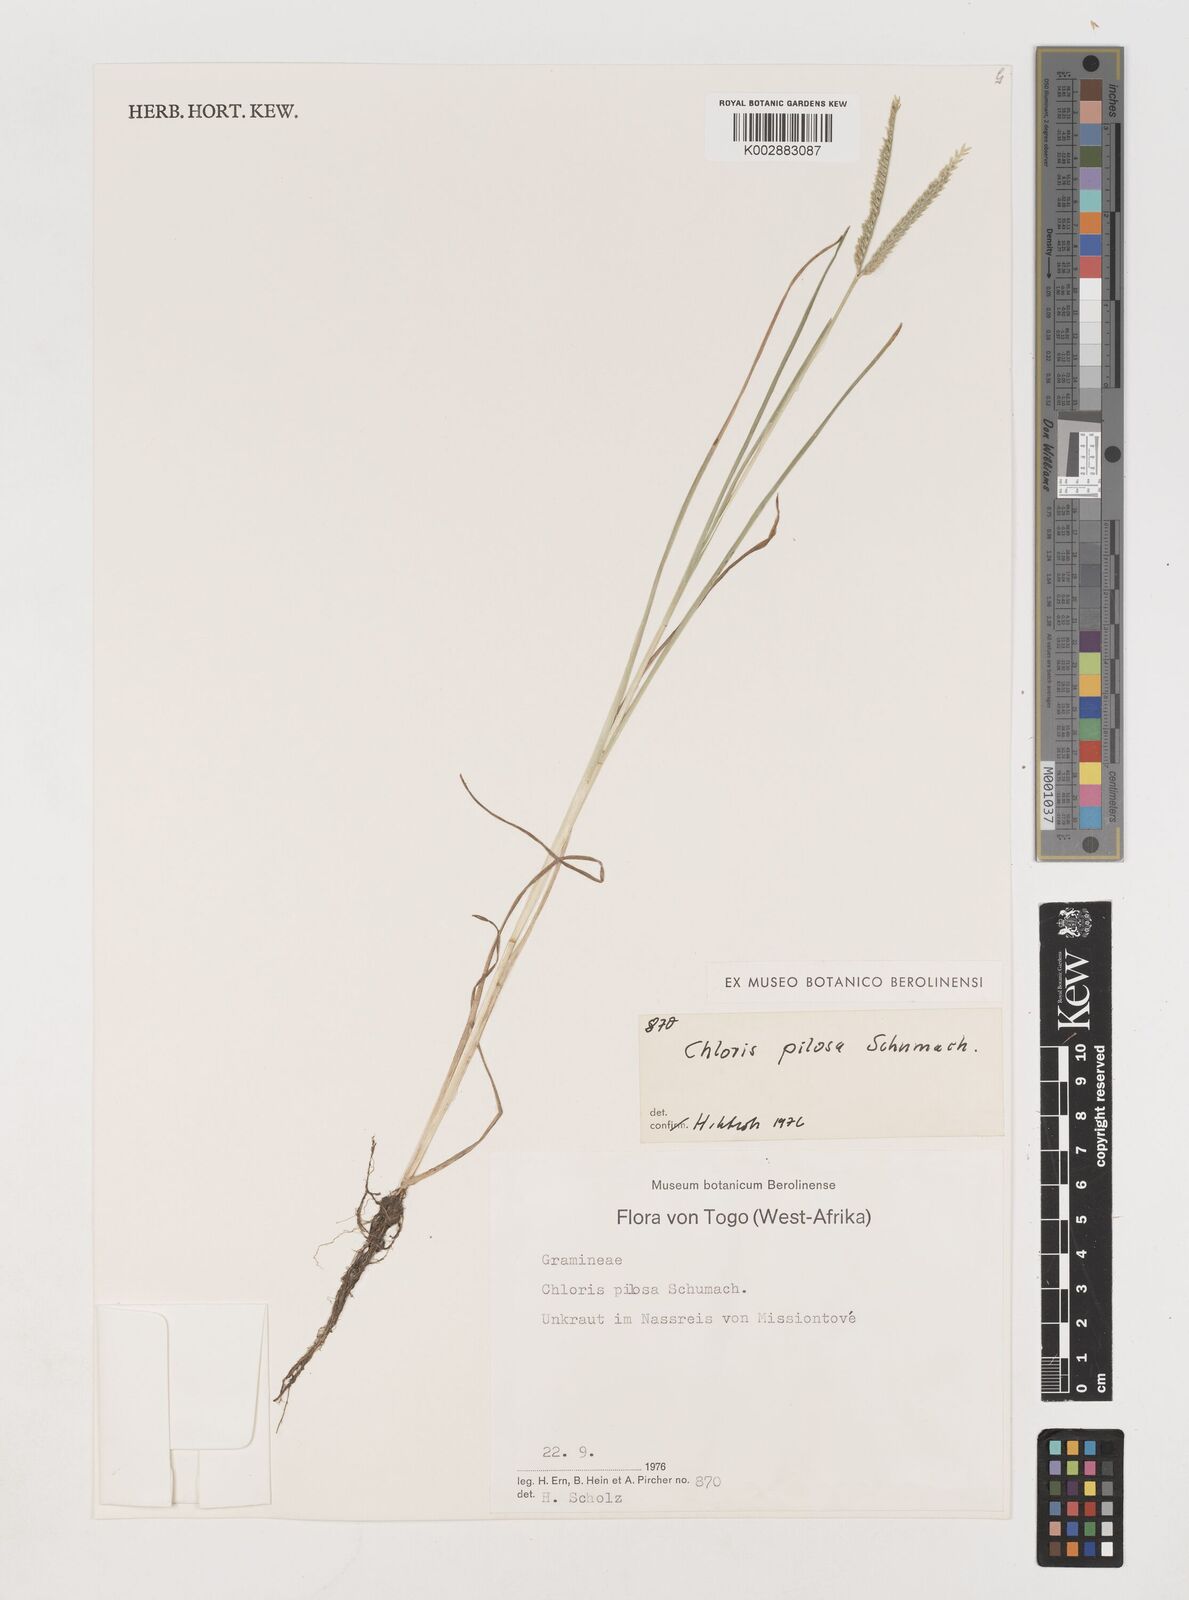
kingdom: Plantae
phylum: Tracheophyta
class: Liliopsida
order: Poales
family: Poaceae
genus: Chloris
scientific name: Chloris pilosa
